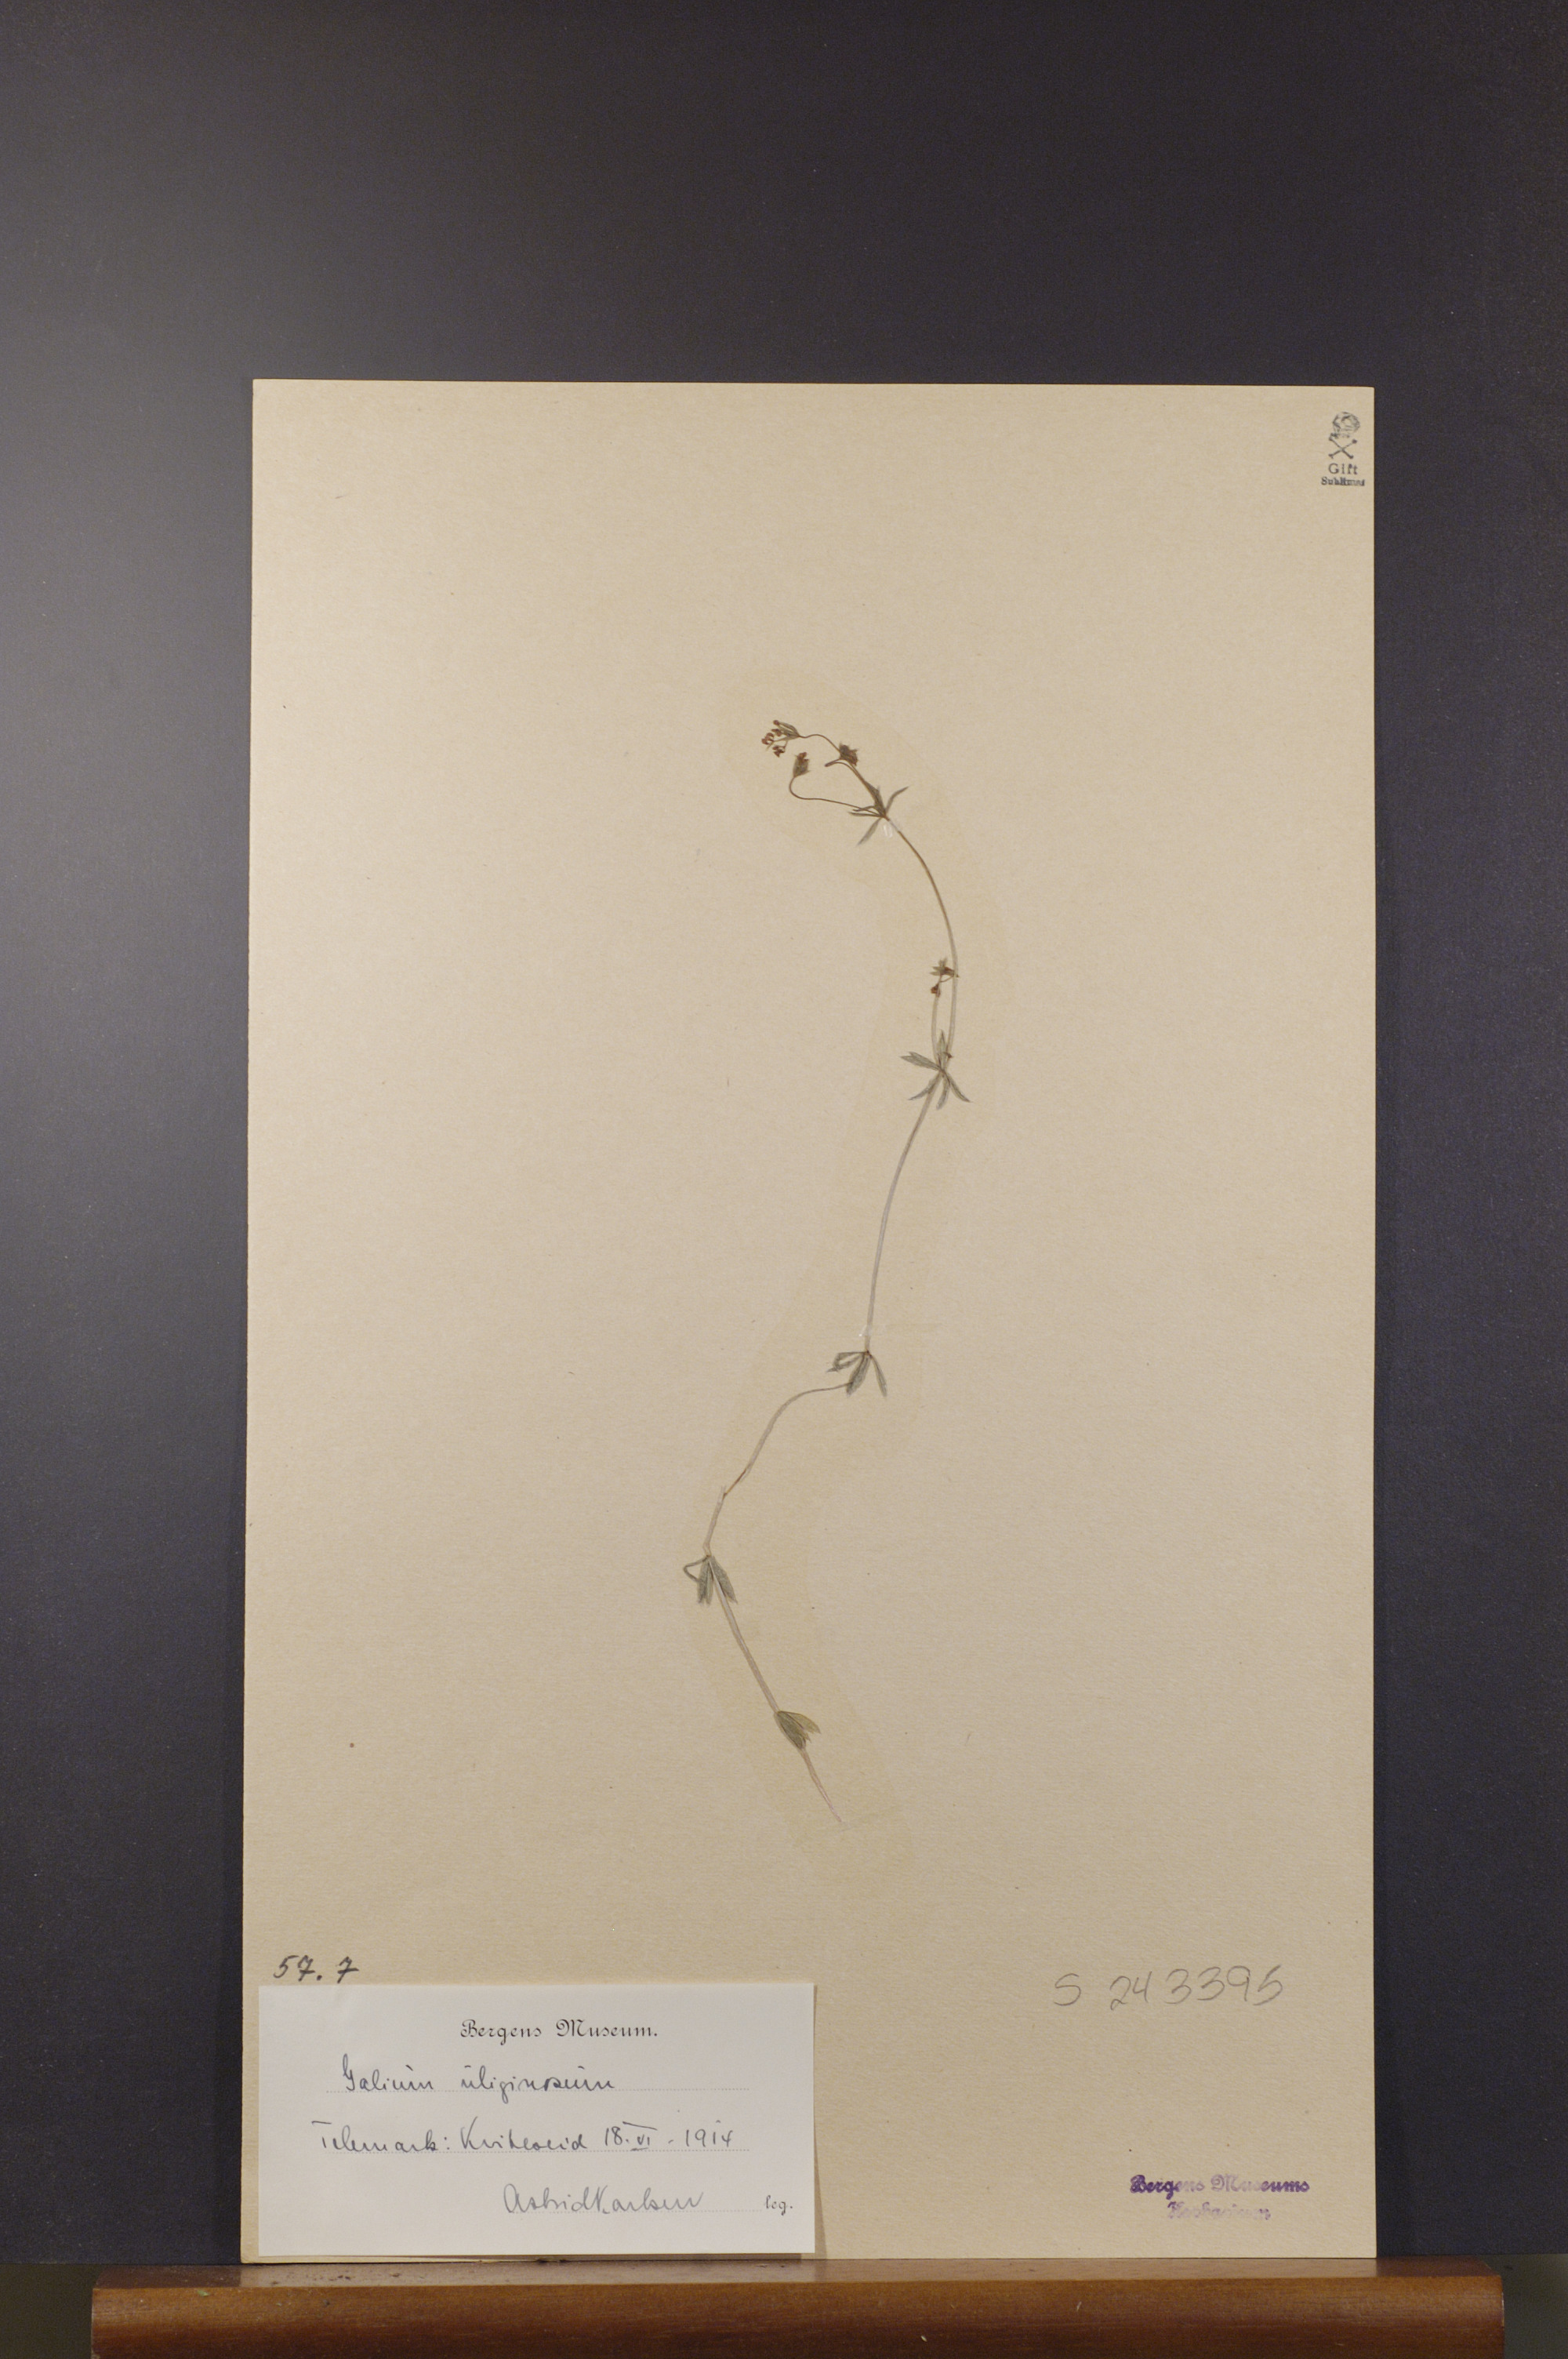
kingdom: Plantae
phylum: Tracheophyta
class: Magnoliopsida
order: Gentianales
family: Rubiaceae
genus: Galium
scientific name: Galium uliginosum
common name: Fen bedstraw
